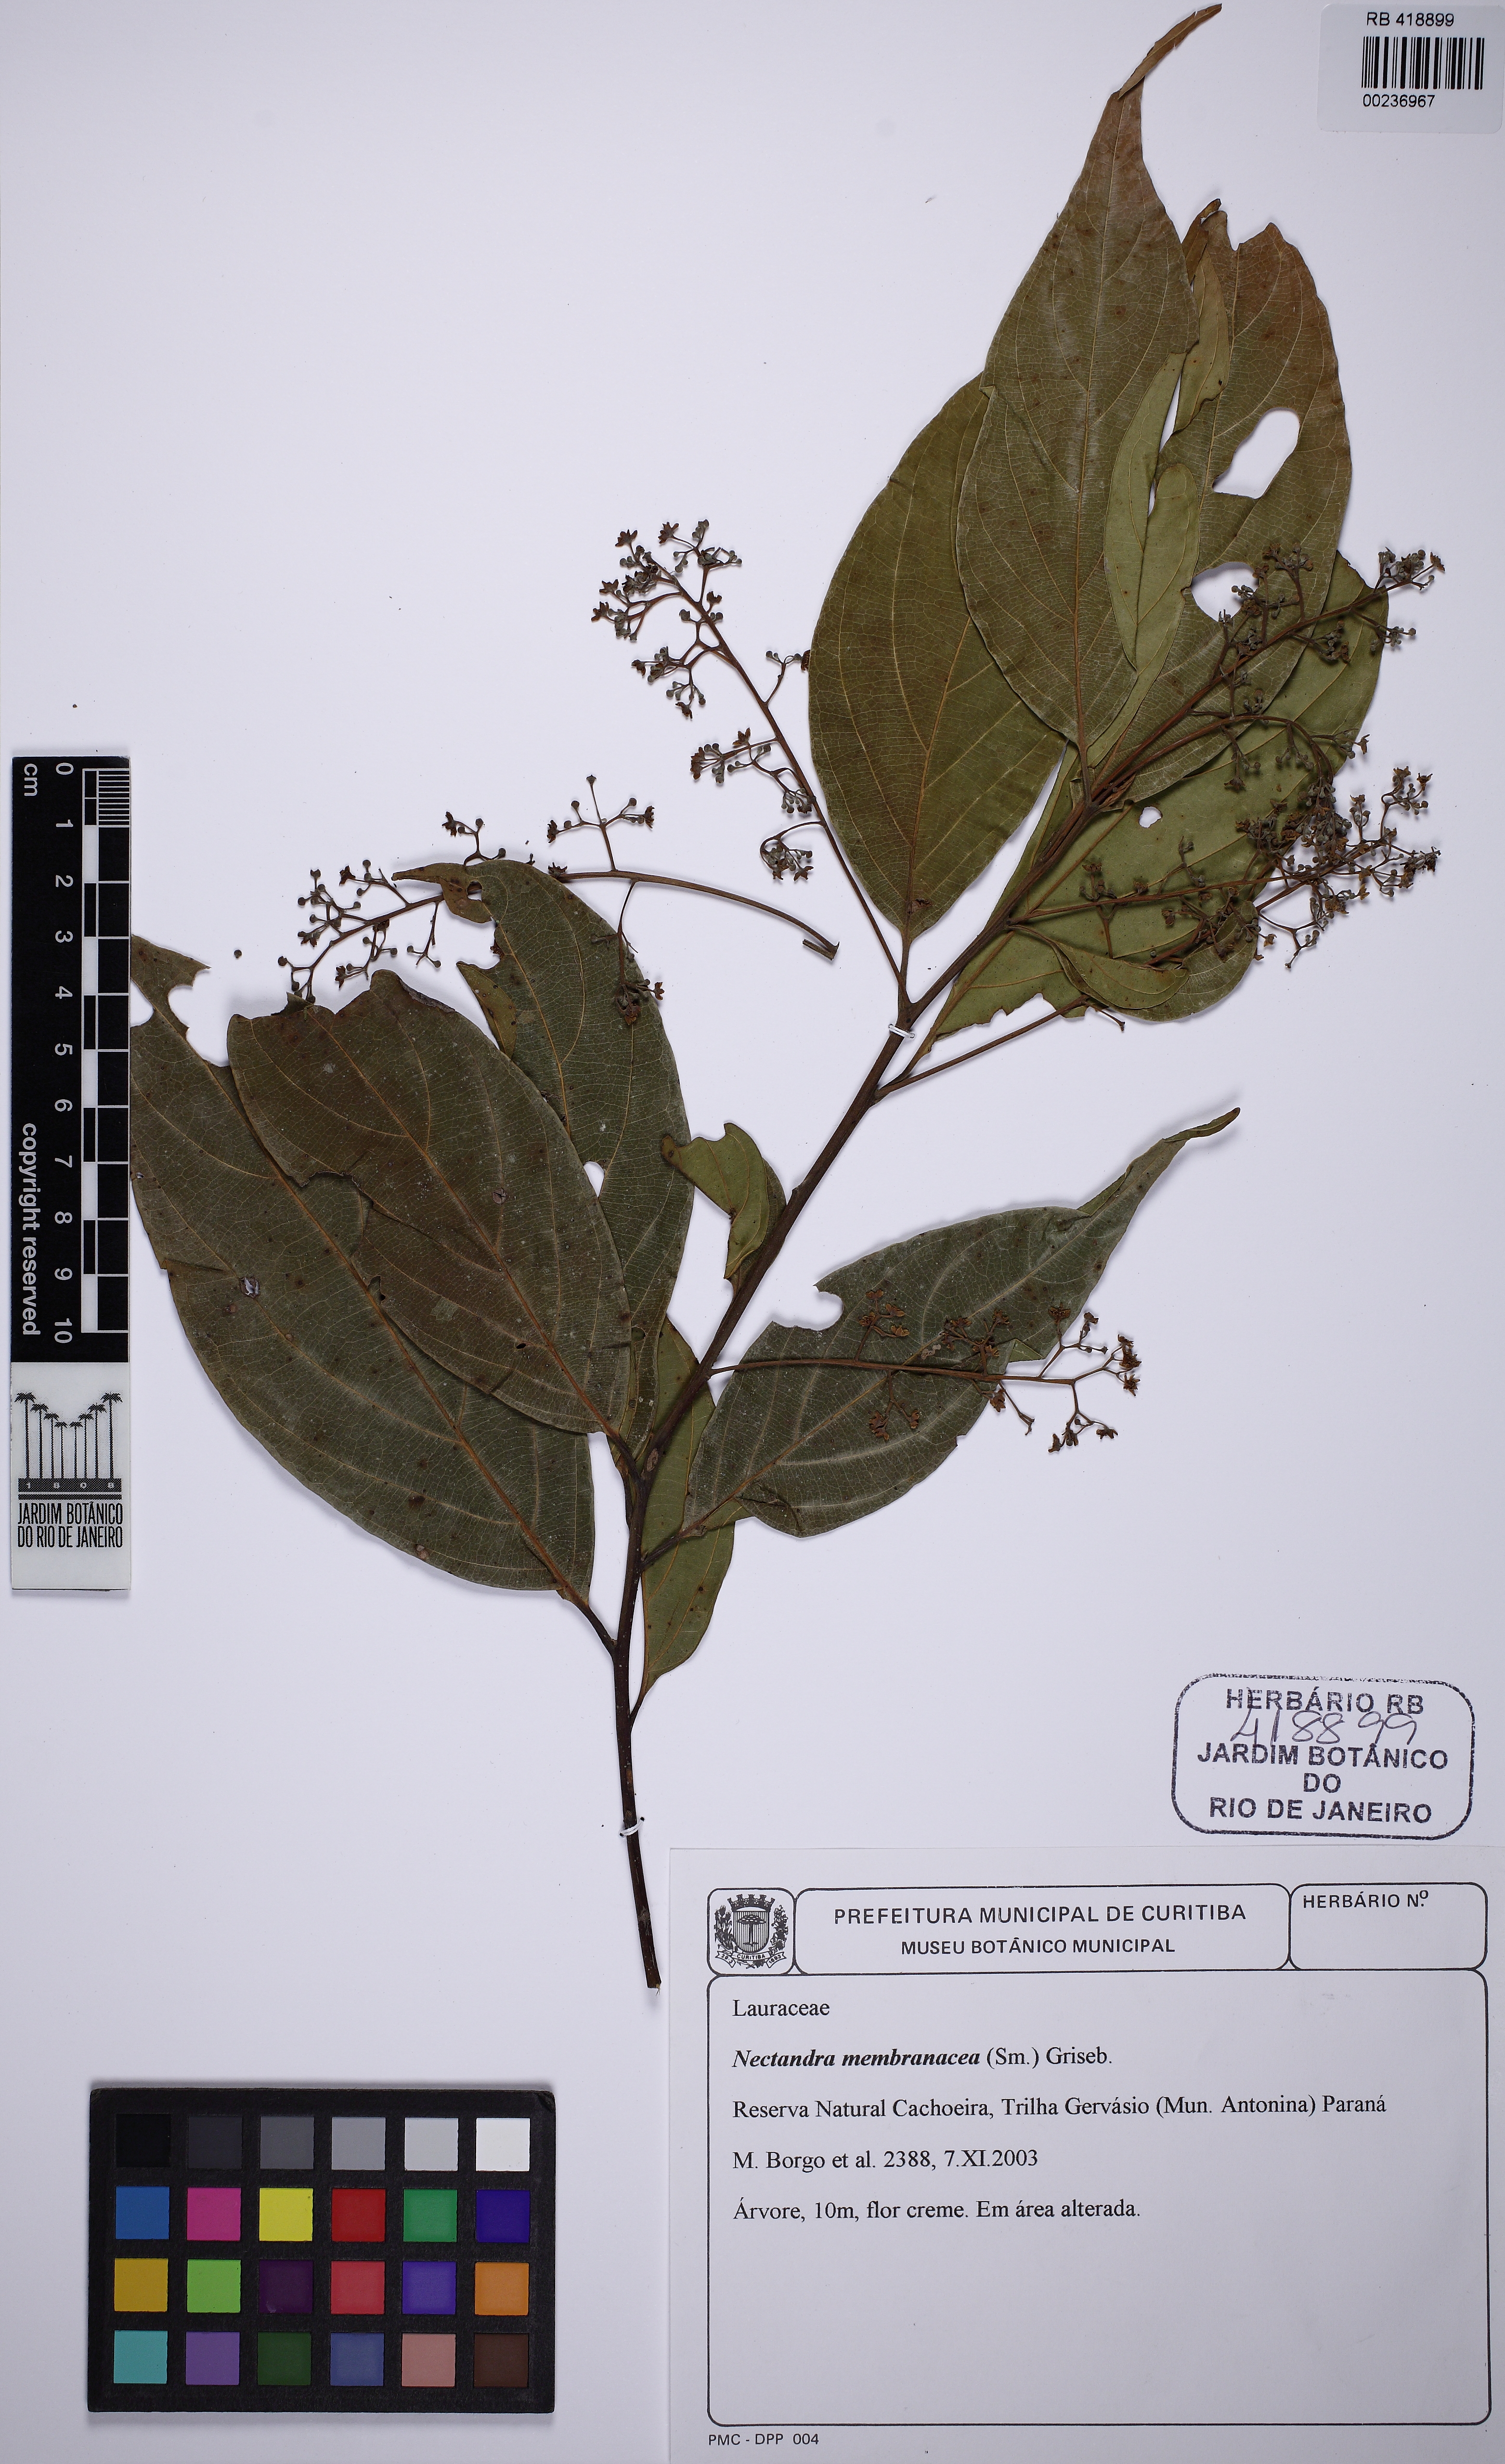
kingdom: Plantae
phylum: Tracheophyta
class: Magnoliopsida
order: Laurales
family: Lauraceae
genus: Nectandra
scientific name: Nectandra membranacea
